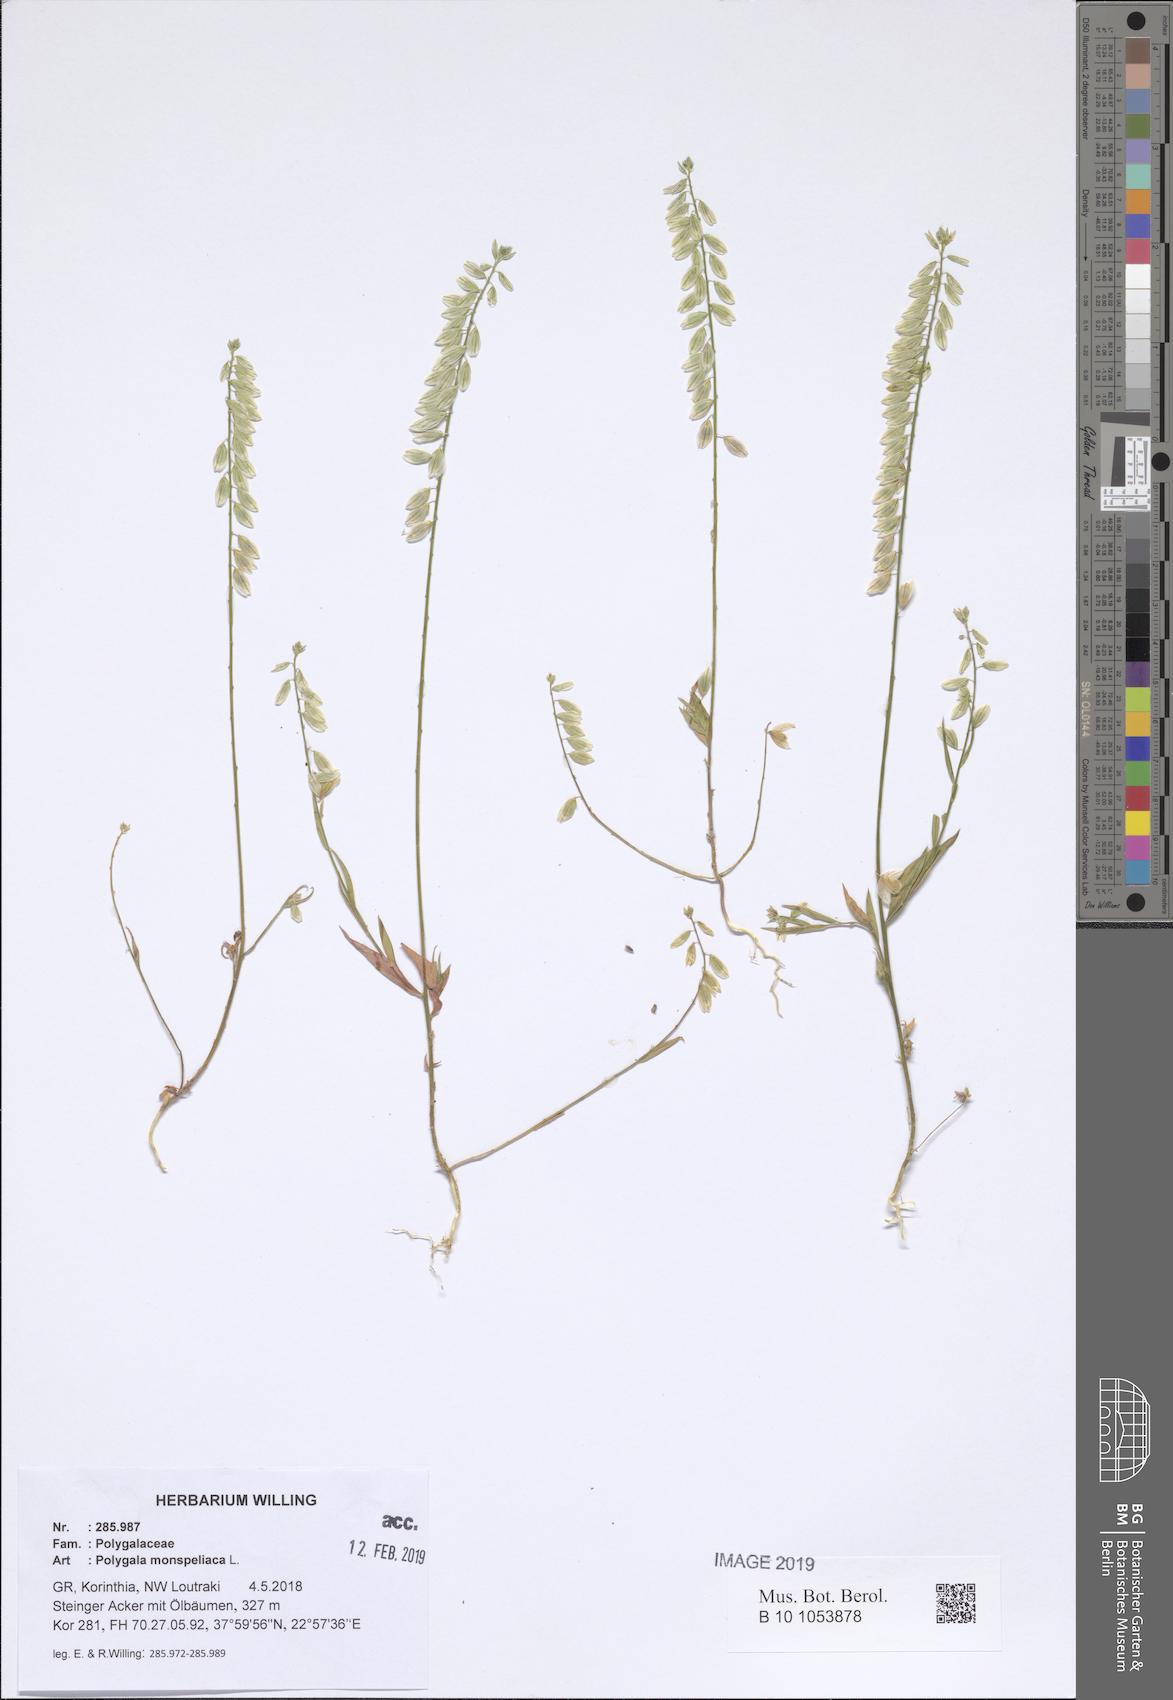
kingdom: Plantae
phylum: Tracheophyta
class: Magnoliopsida
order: Fabales
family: Polygalaceae
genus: Polygala
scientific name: Polygala monspeliaca
